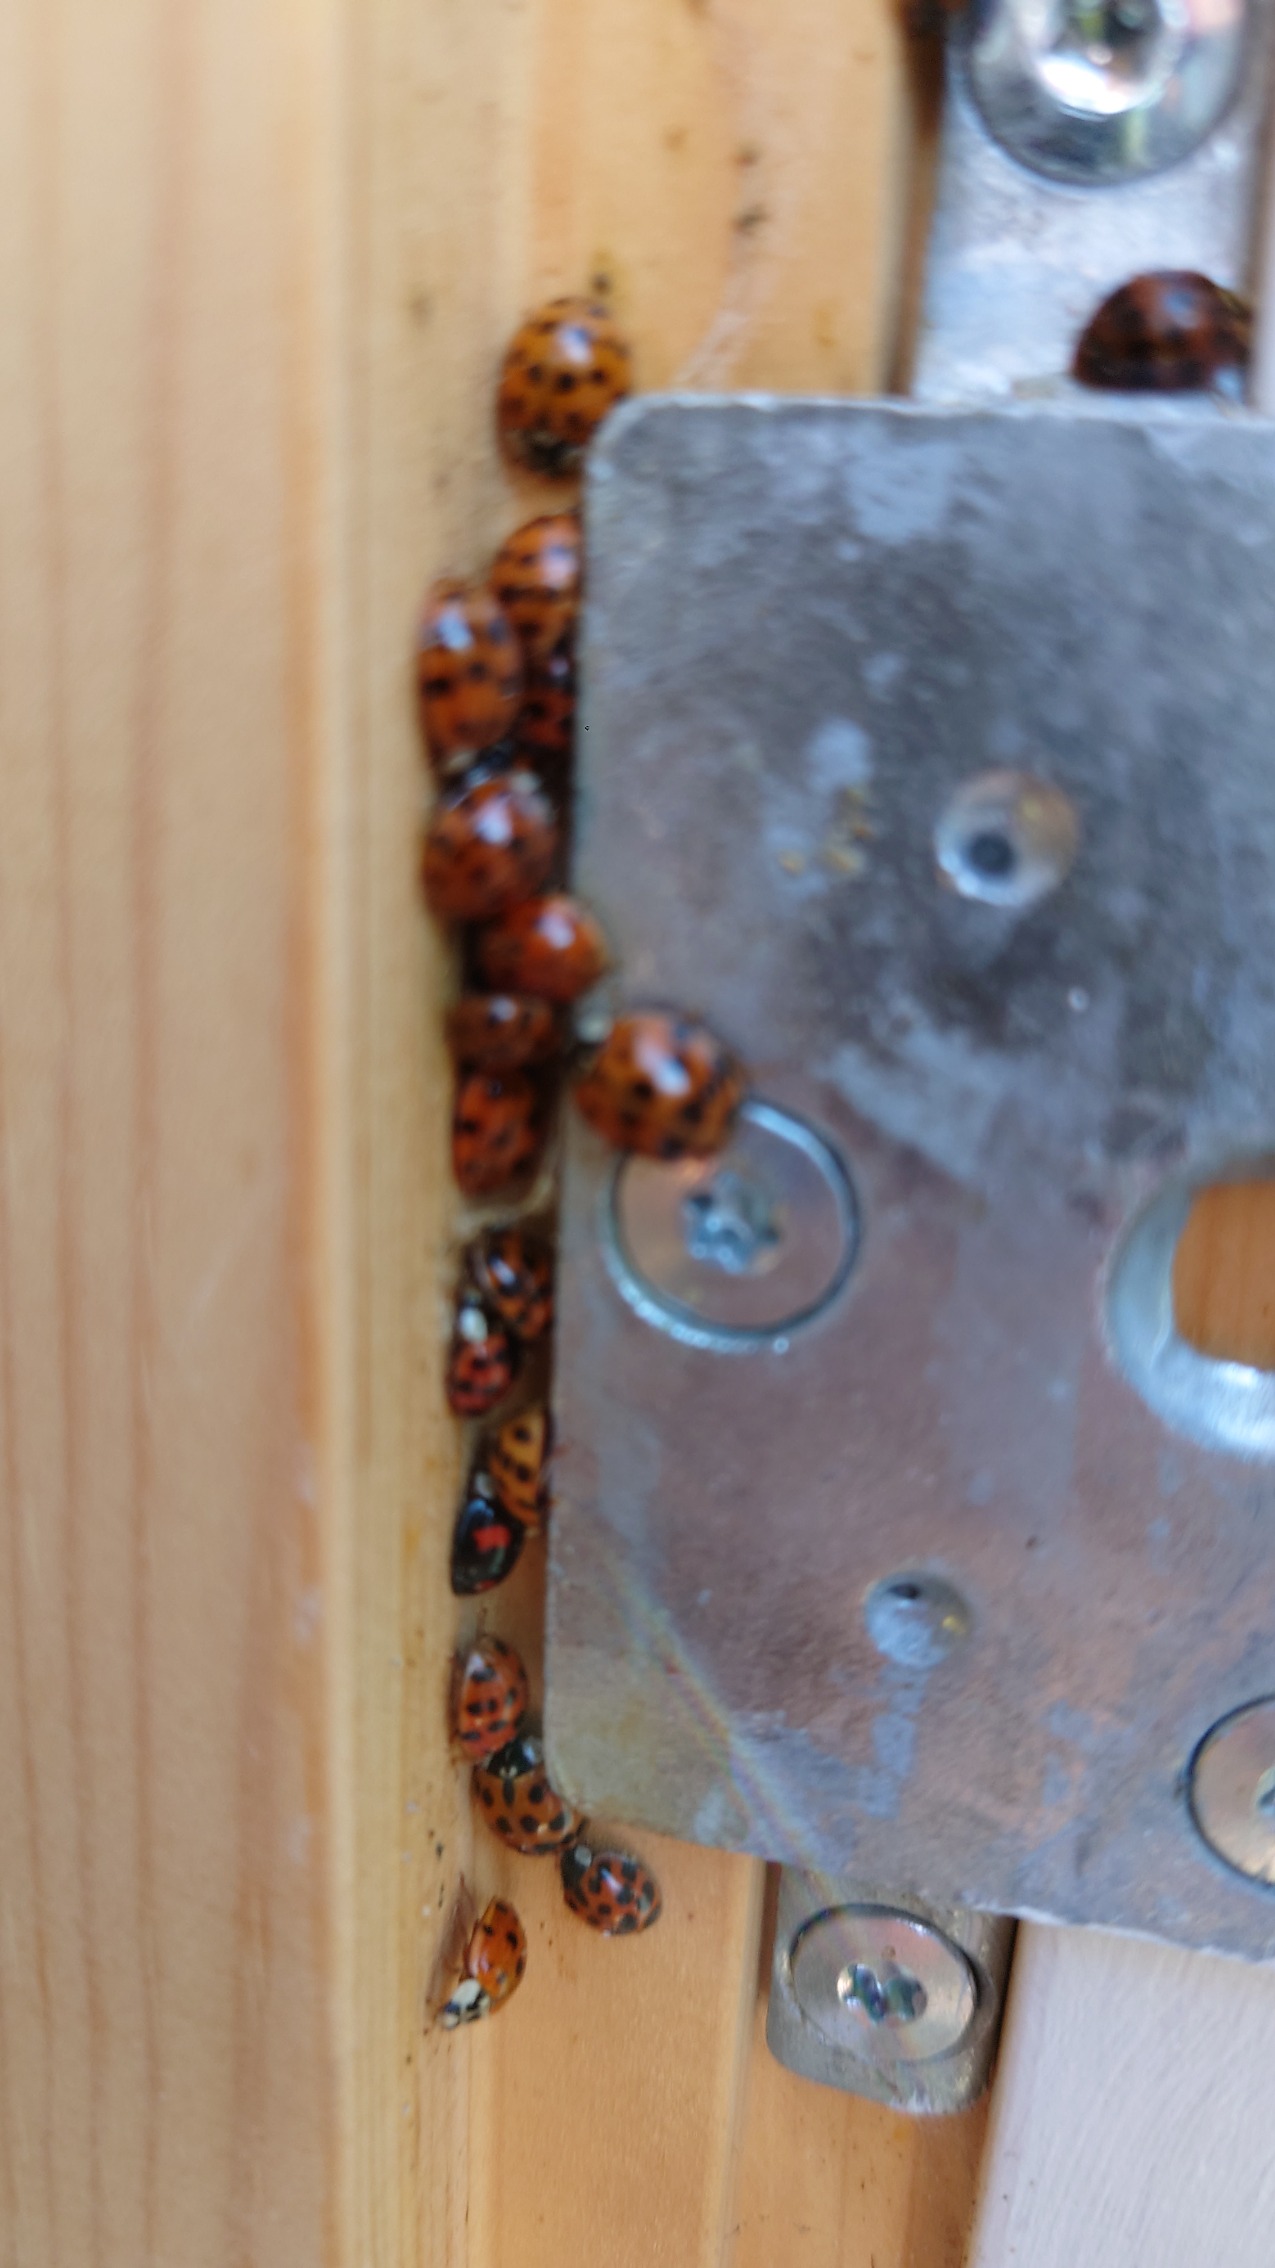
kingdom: Animalia
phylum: Arthropoda
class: Insecta
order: Coleoptera
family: Coccinellidae
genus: Harmonia
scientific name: Harmonia axyridis
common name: Harlekinmariehøne
